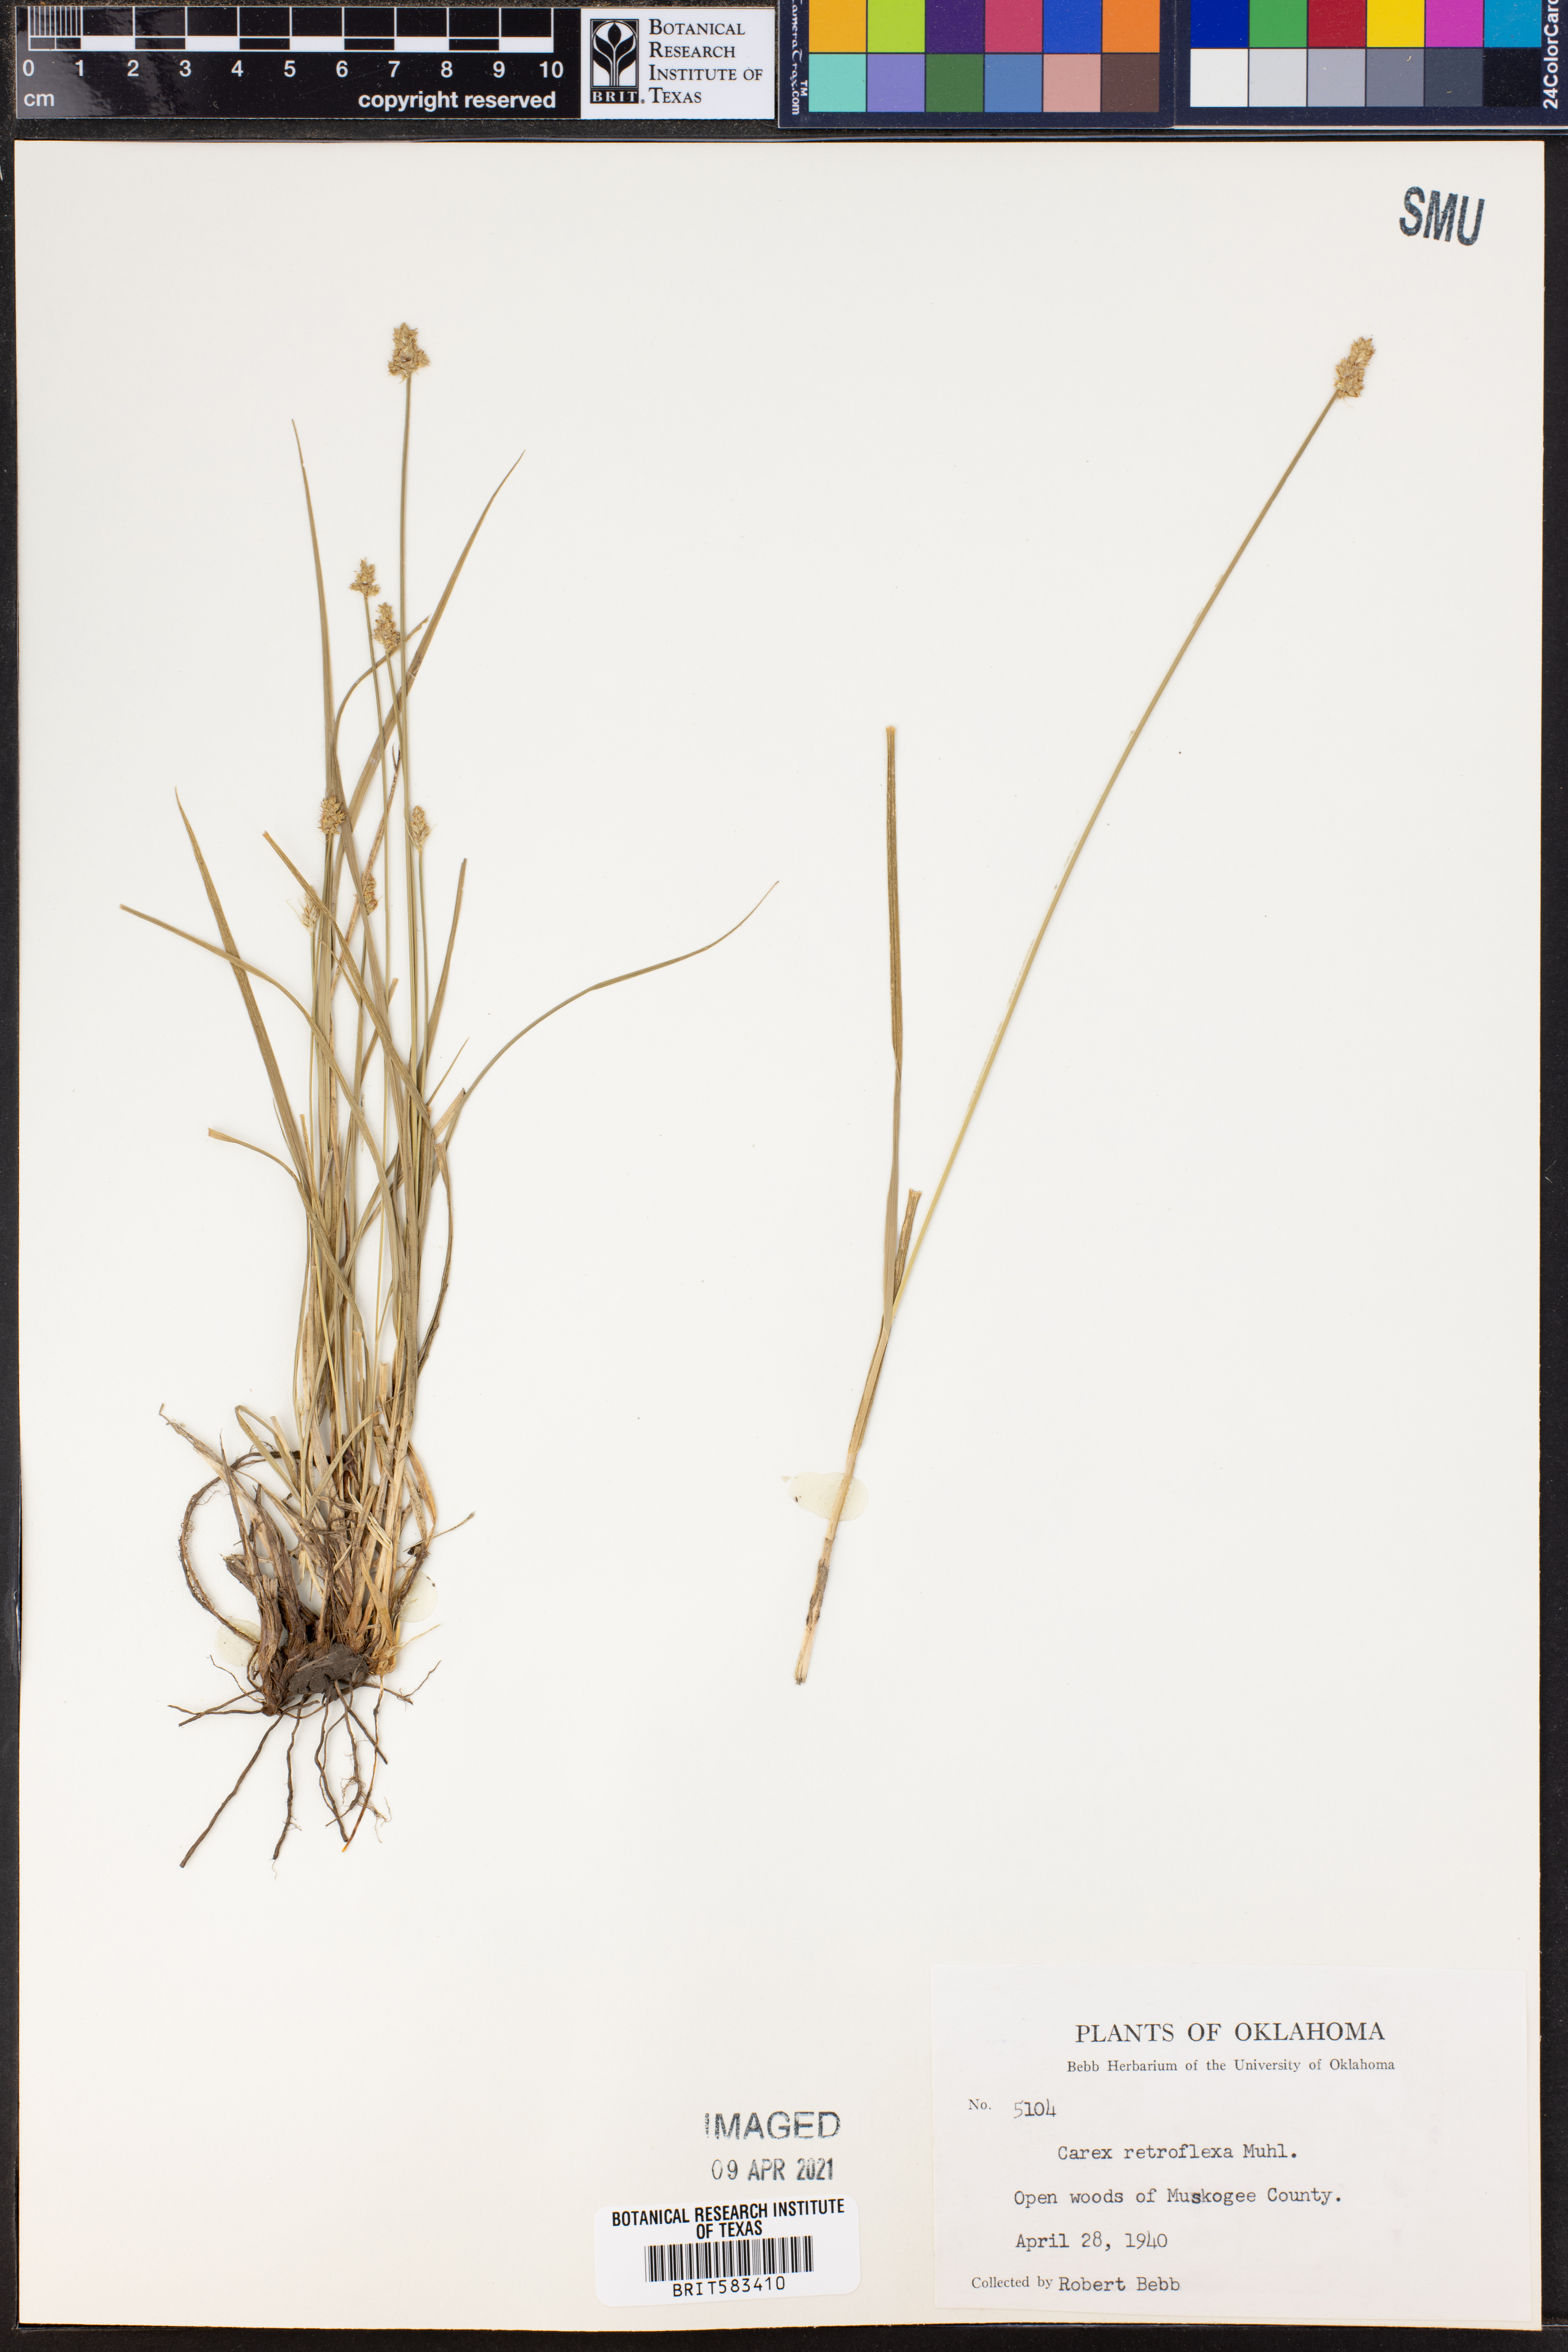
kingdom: Plantae
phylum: Tracheophyta
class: Liliopsida
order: Poales
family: Cyperaceae
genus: Carex
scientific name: Carex retroflexa
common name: Reflexed sedge
